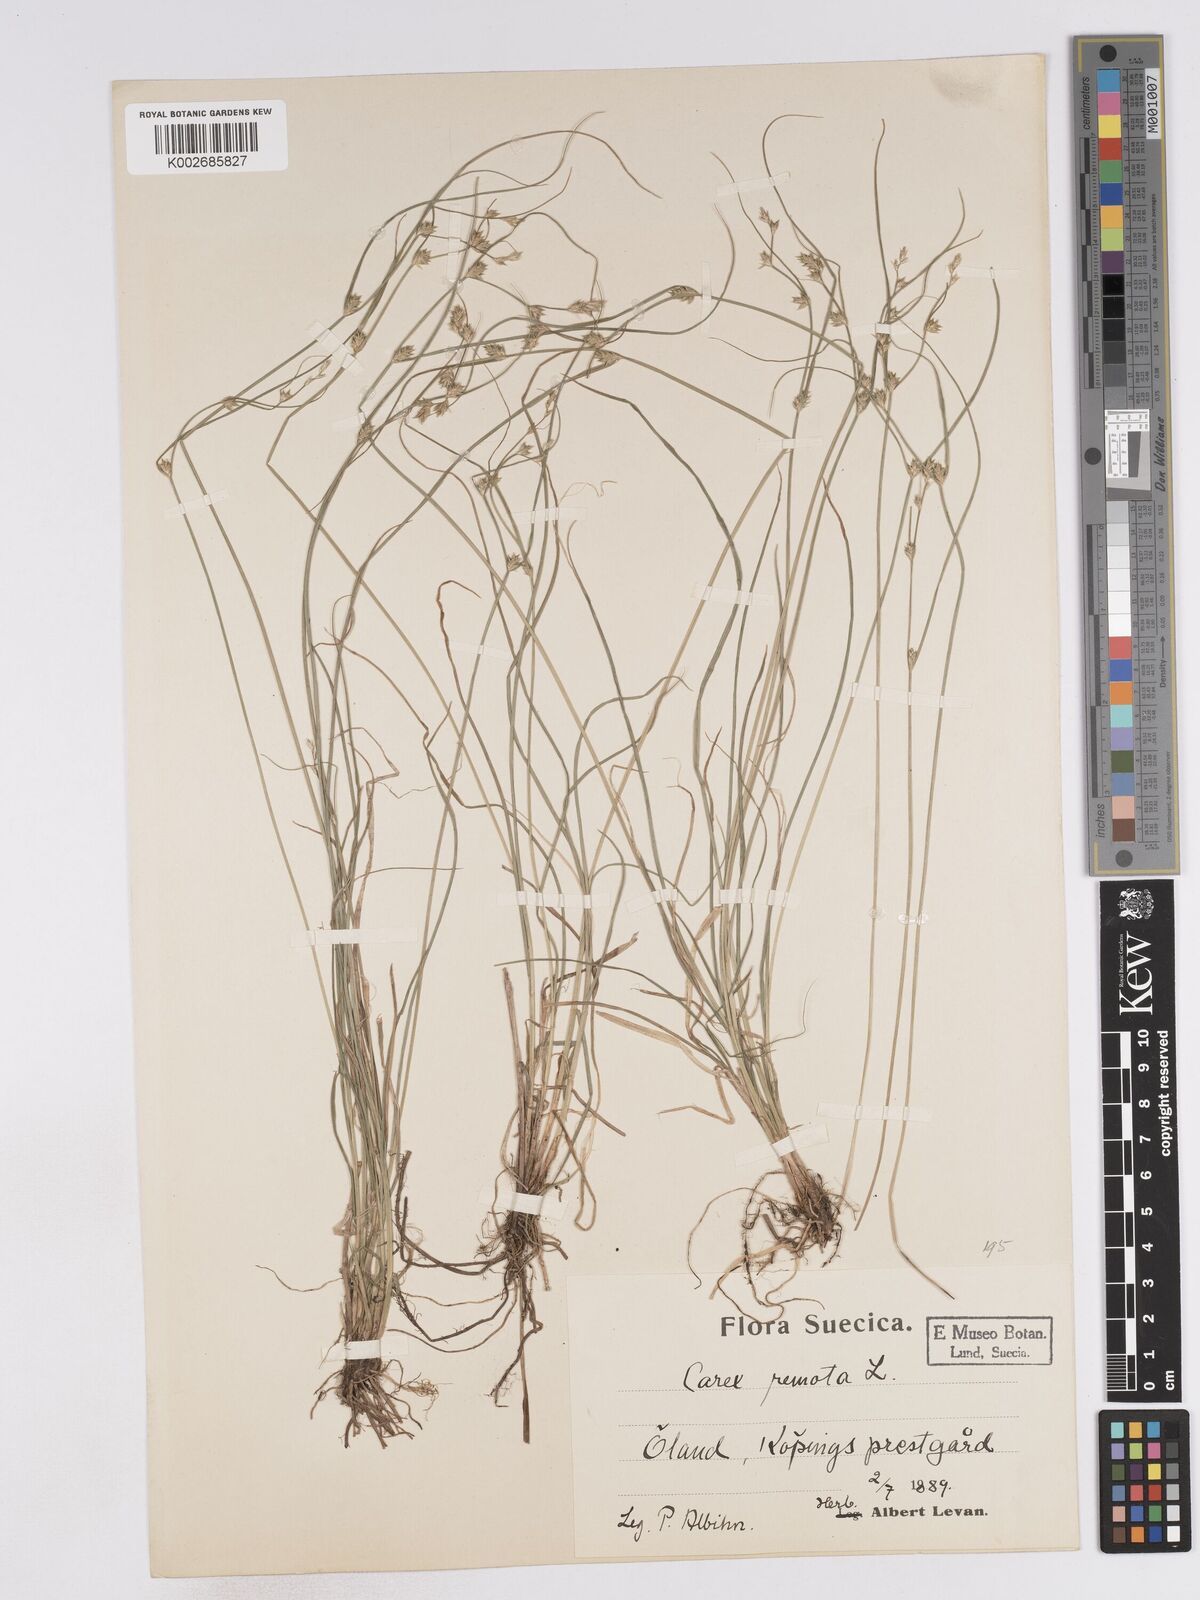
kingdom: Plantae
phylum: Tracheophyta
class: Liliopsida
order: Poales
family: Cyperaceae
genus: Carex
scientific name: Carex remota
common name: Remote sedge
